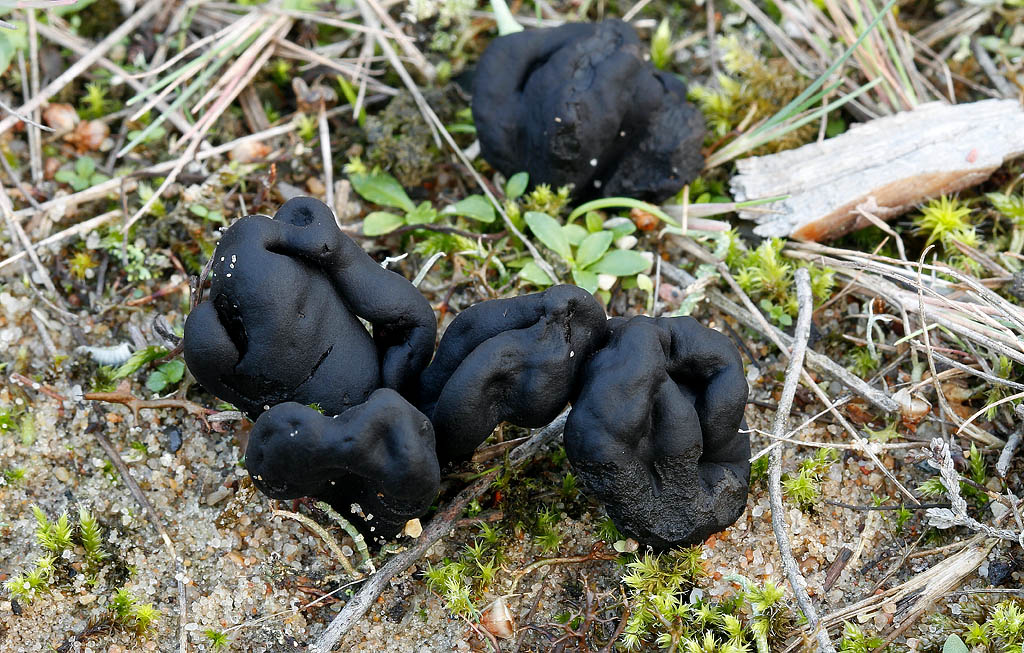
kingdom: Fungi
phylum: Ascomycota
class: Geoglossomycetes
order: Geoglossales
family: Geoglossaceae
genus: Sabuloglossum
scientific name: Sabuloglossum arenarium
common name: klit-jordtunge
